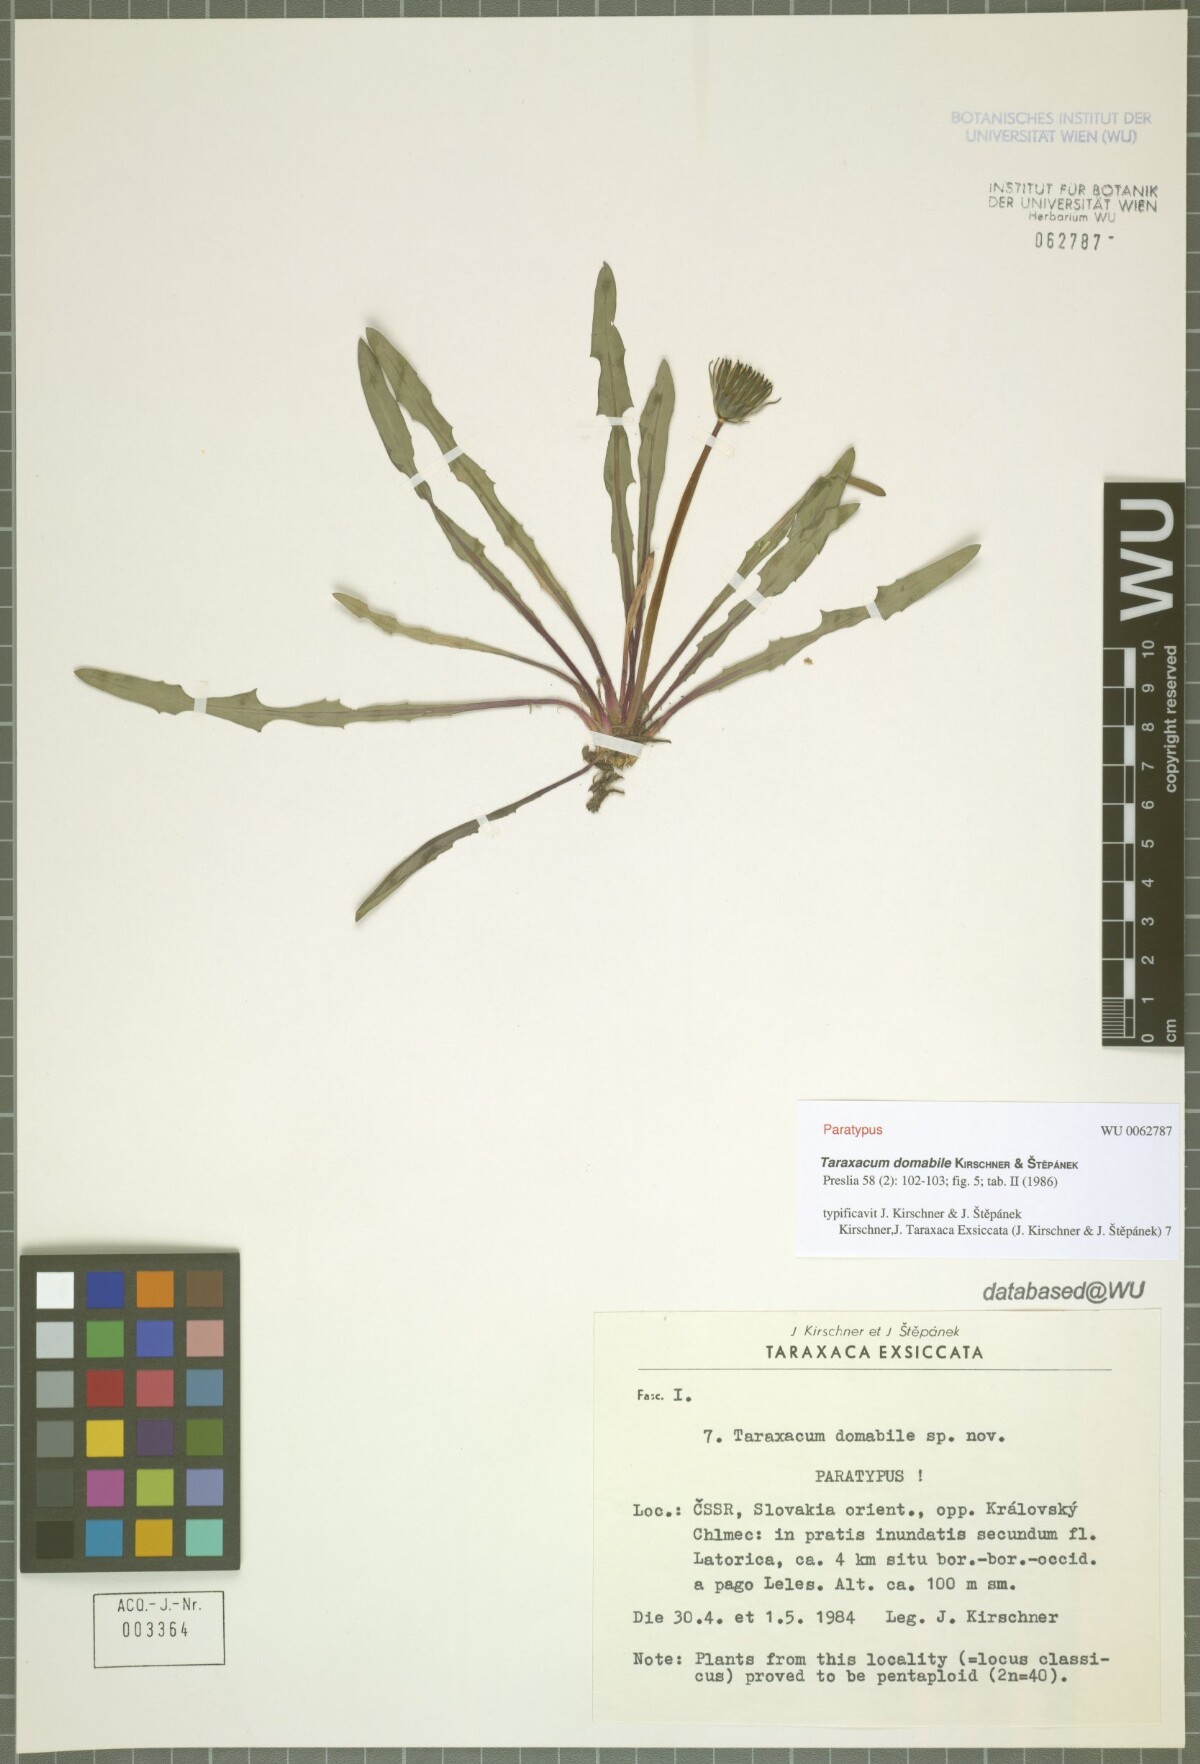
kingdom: Plantae
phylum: Tracheophyta
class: Magnoliopsida
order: Asterales
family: Asteraceae
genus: Taraxacum
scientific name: Taraxacum domabile
